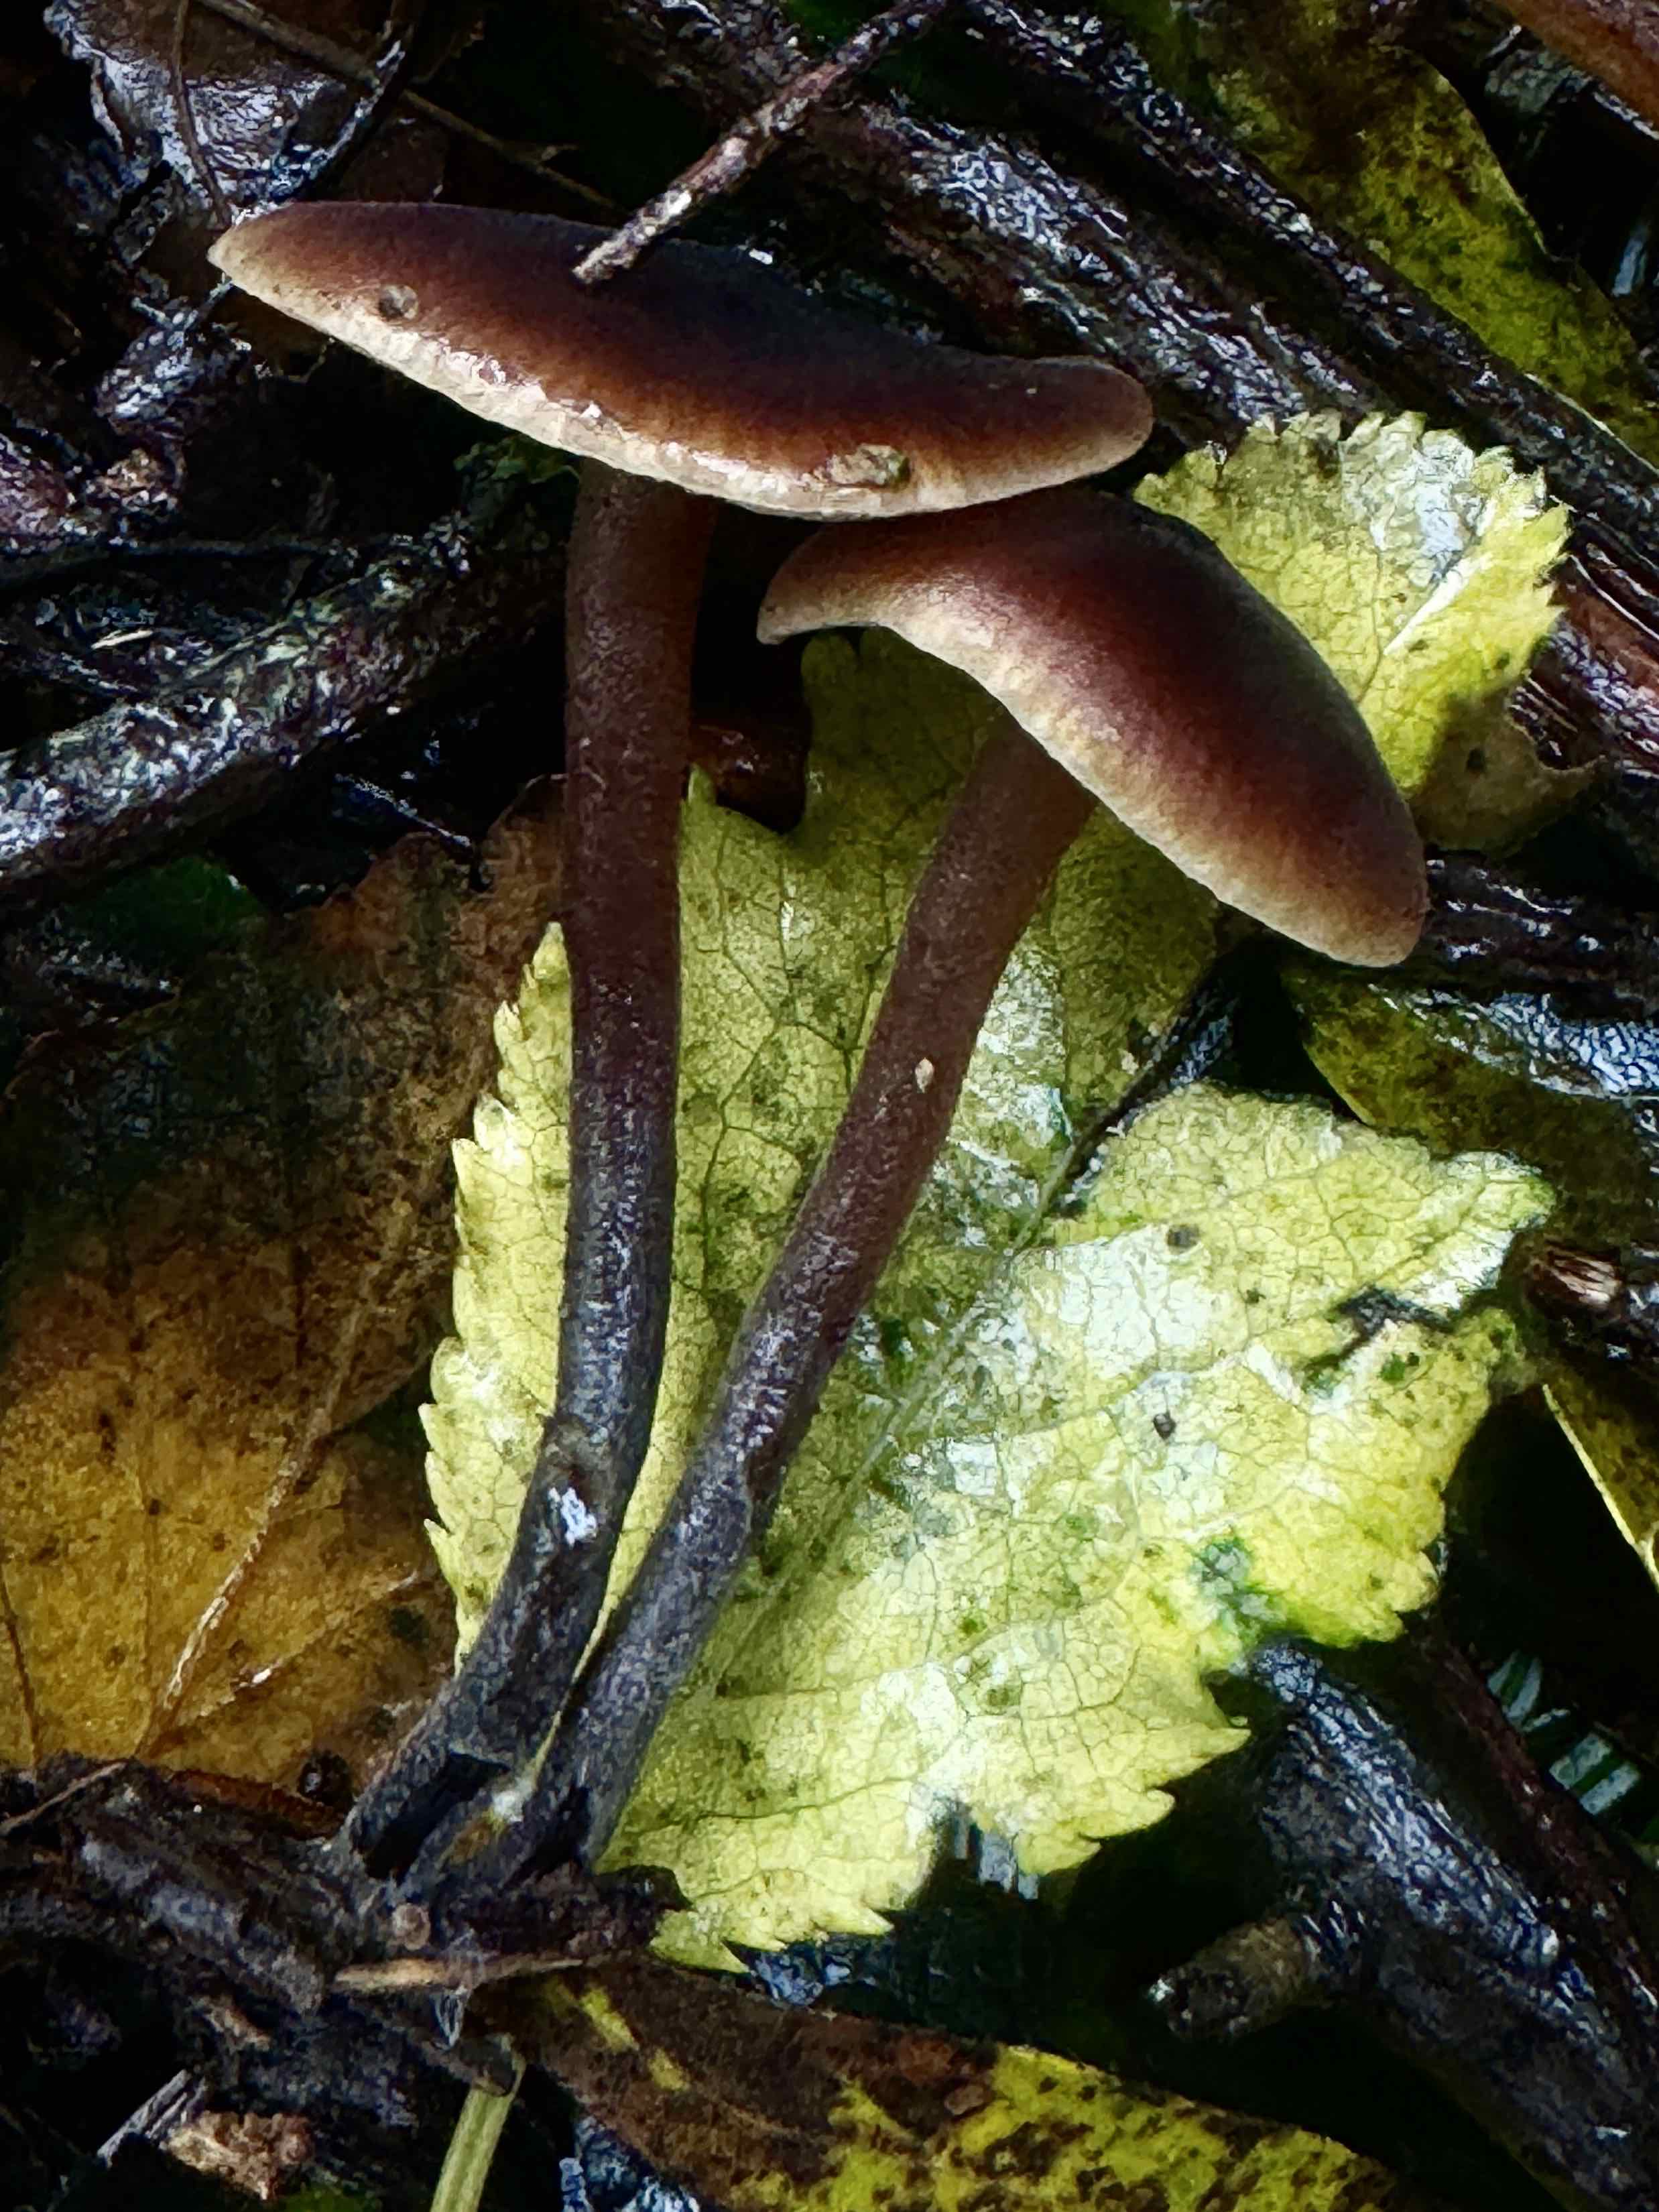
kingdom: Fungi
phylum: Basidiomycota
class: Agaricomycetes
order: Agaricales
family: Macrocystidiaceae
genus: Macrocystidia
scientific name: Macrocystidia cucumis
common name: agurkehat
